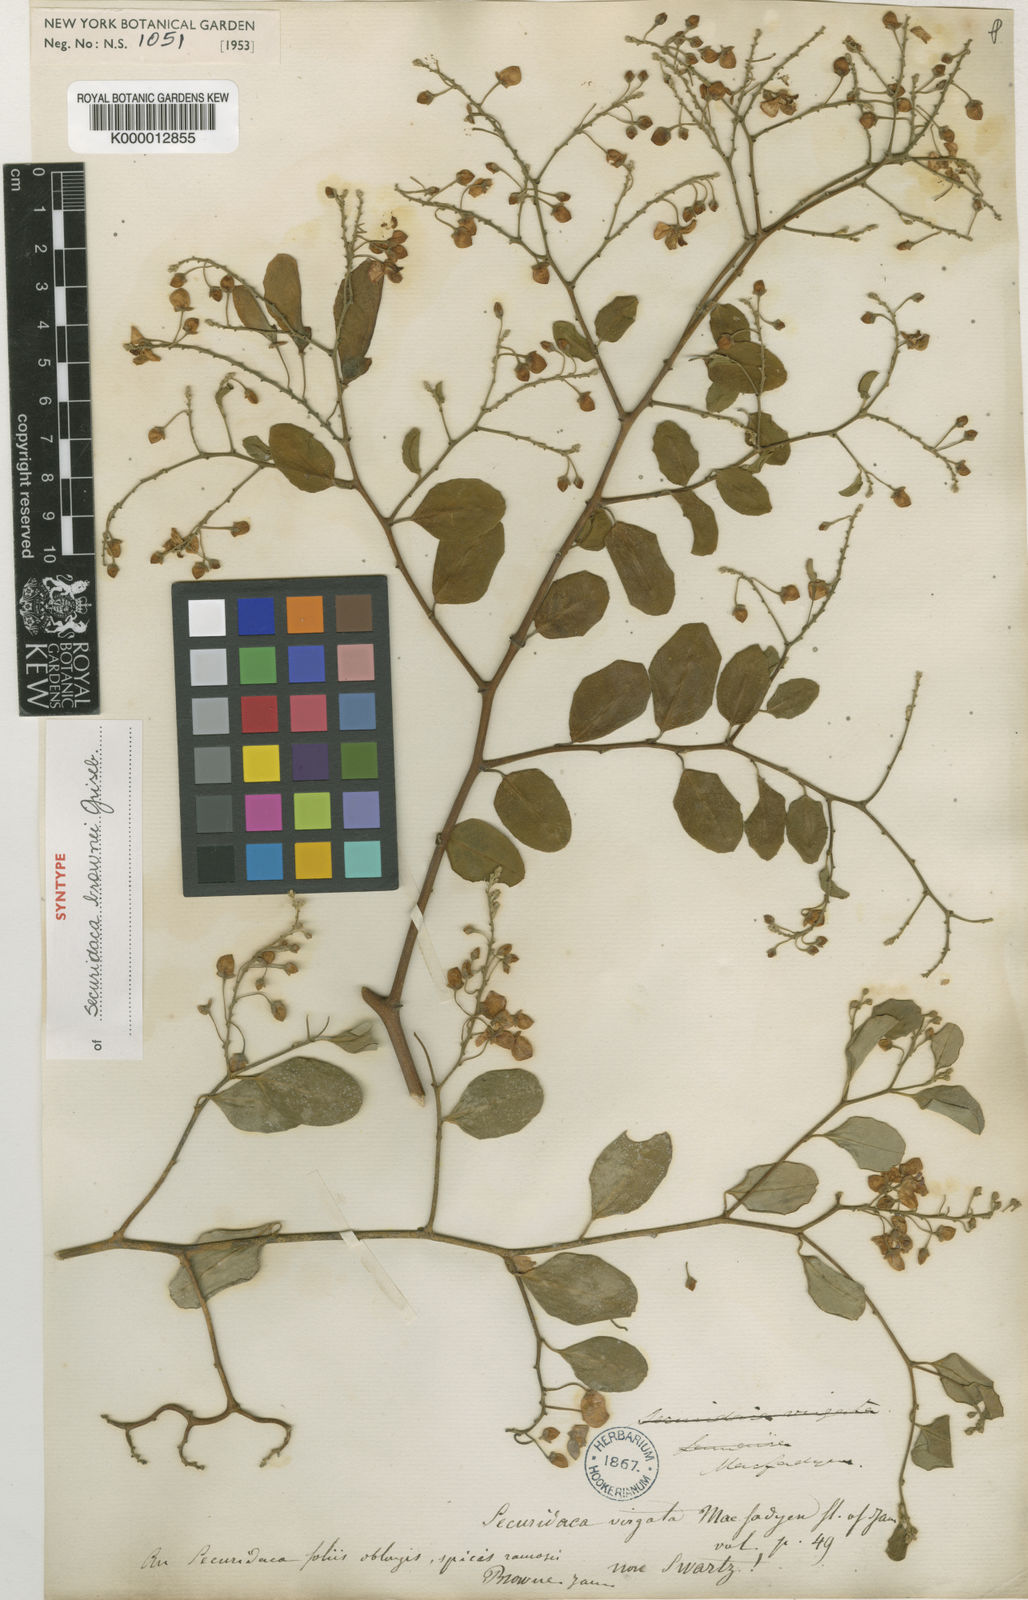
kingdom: Plantae
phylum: Tracheophyta
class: Magnoliopsida
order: Fabales
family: Polygalaceae
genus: Securidaca
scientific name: Securidaca brownii
